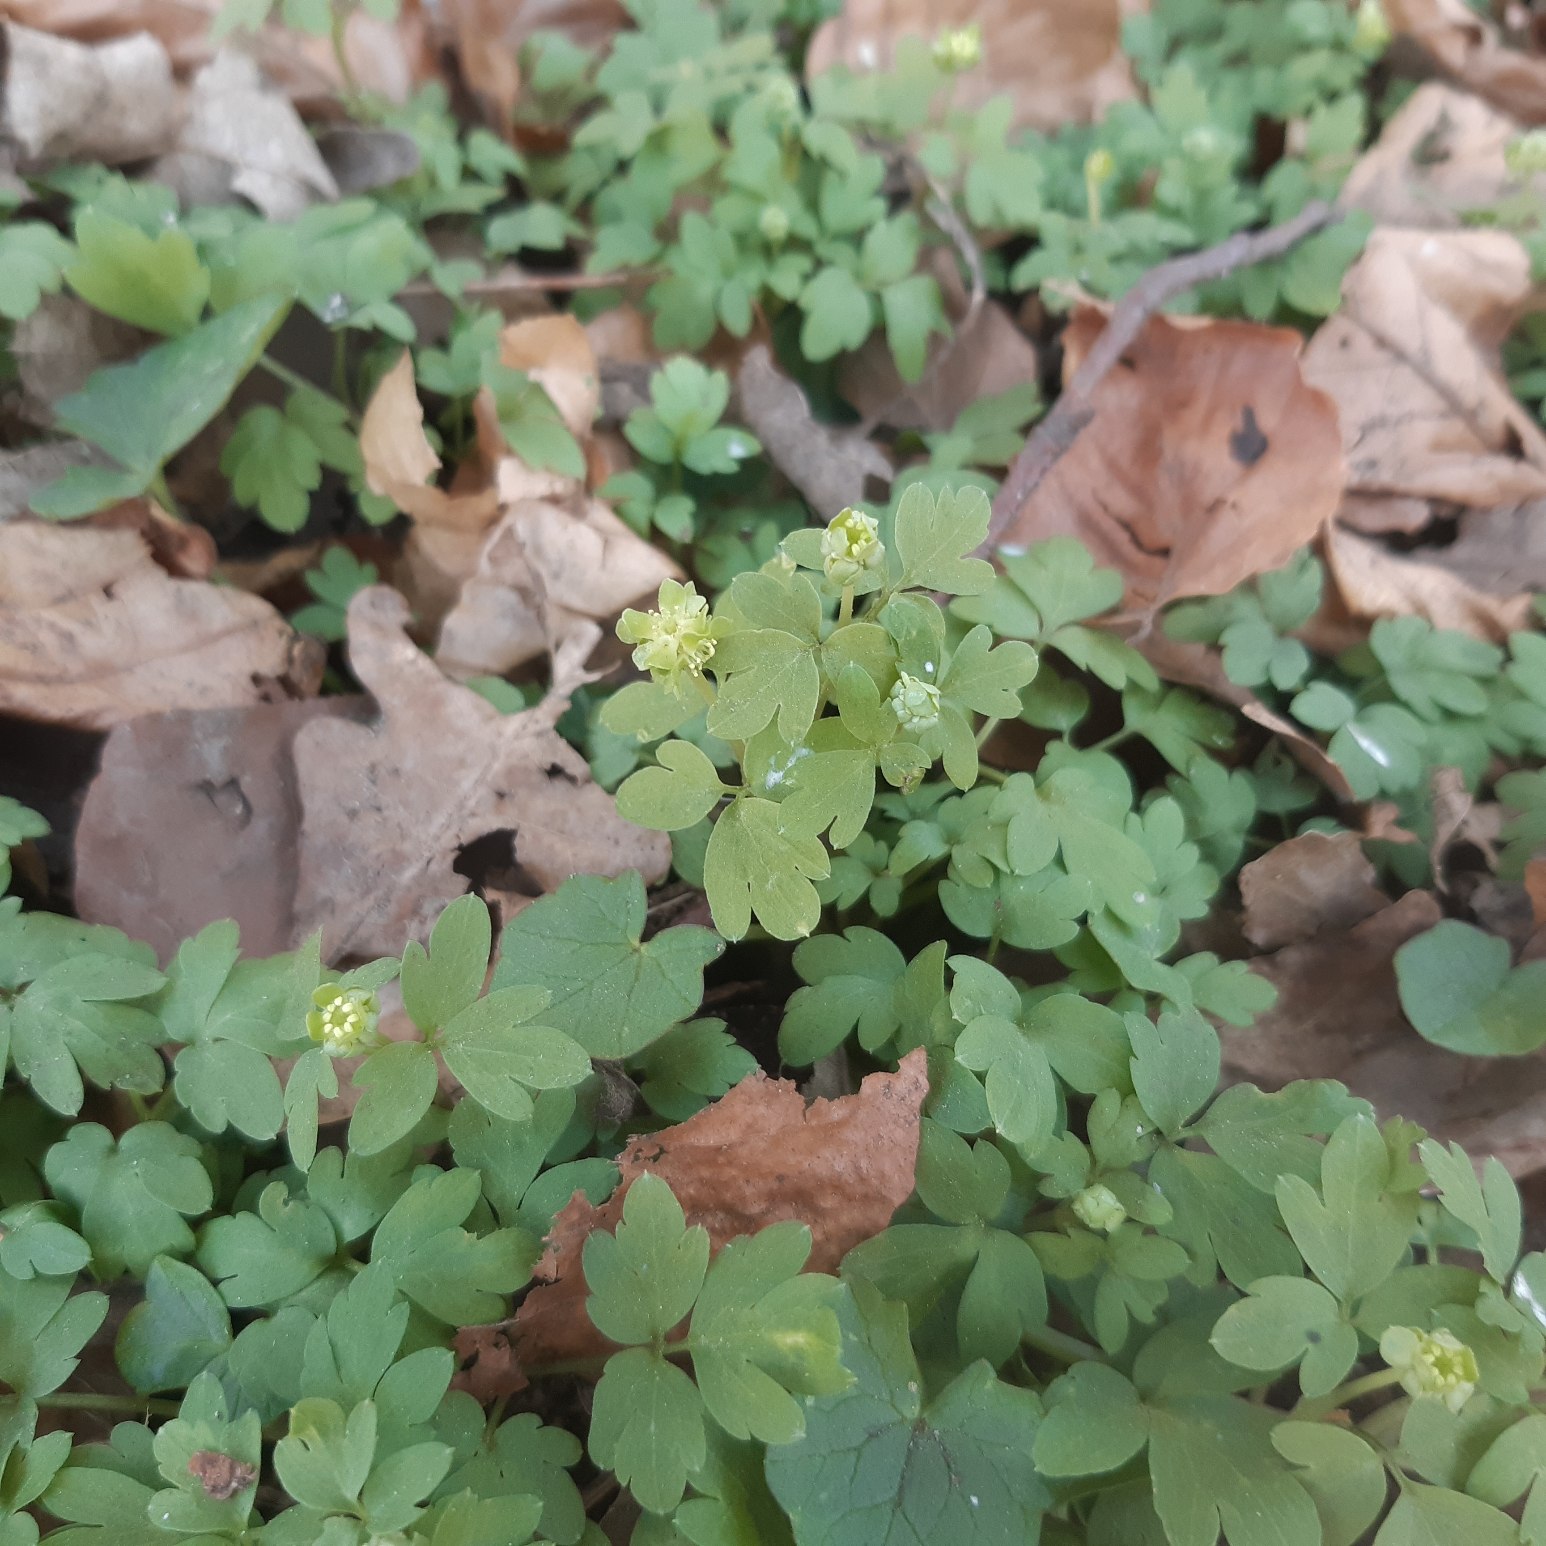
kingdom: Plantae
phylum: Tracheophyta
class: Magnoliopsida
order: Dipsacales
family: Viburnaceae
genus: Adoxa
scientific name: Adoxa moschatellina
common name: Desmerurt
